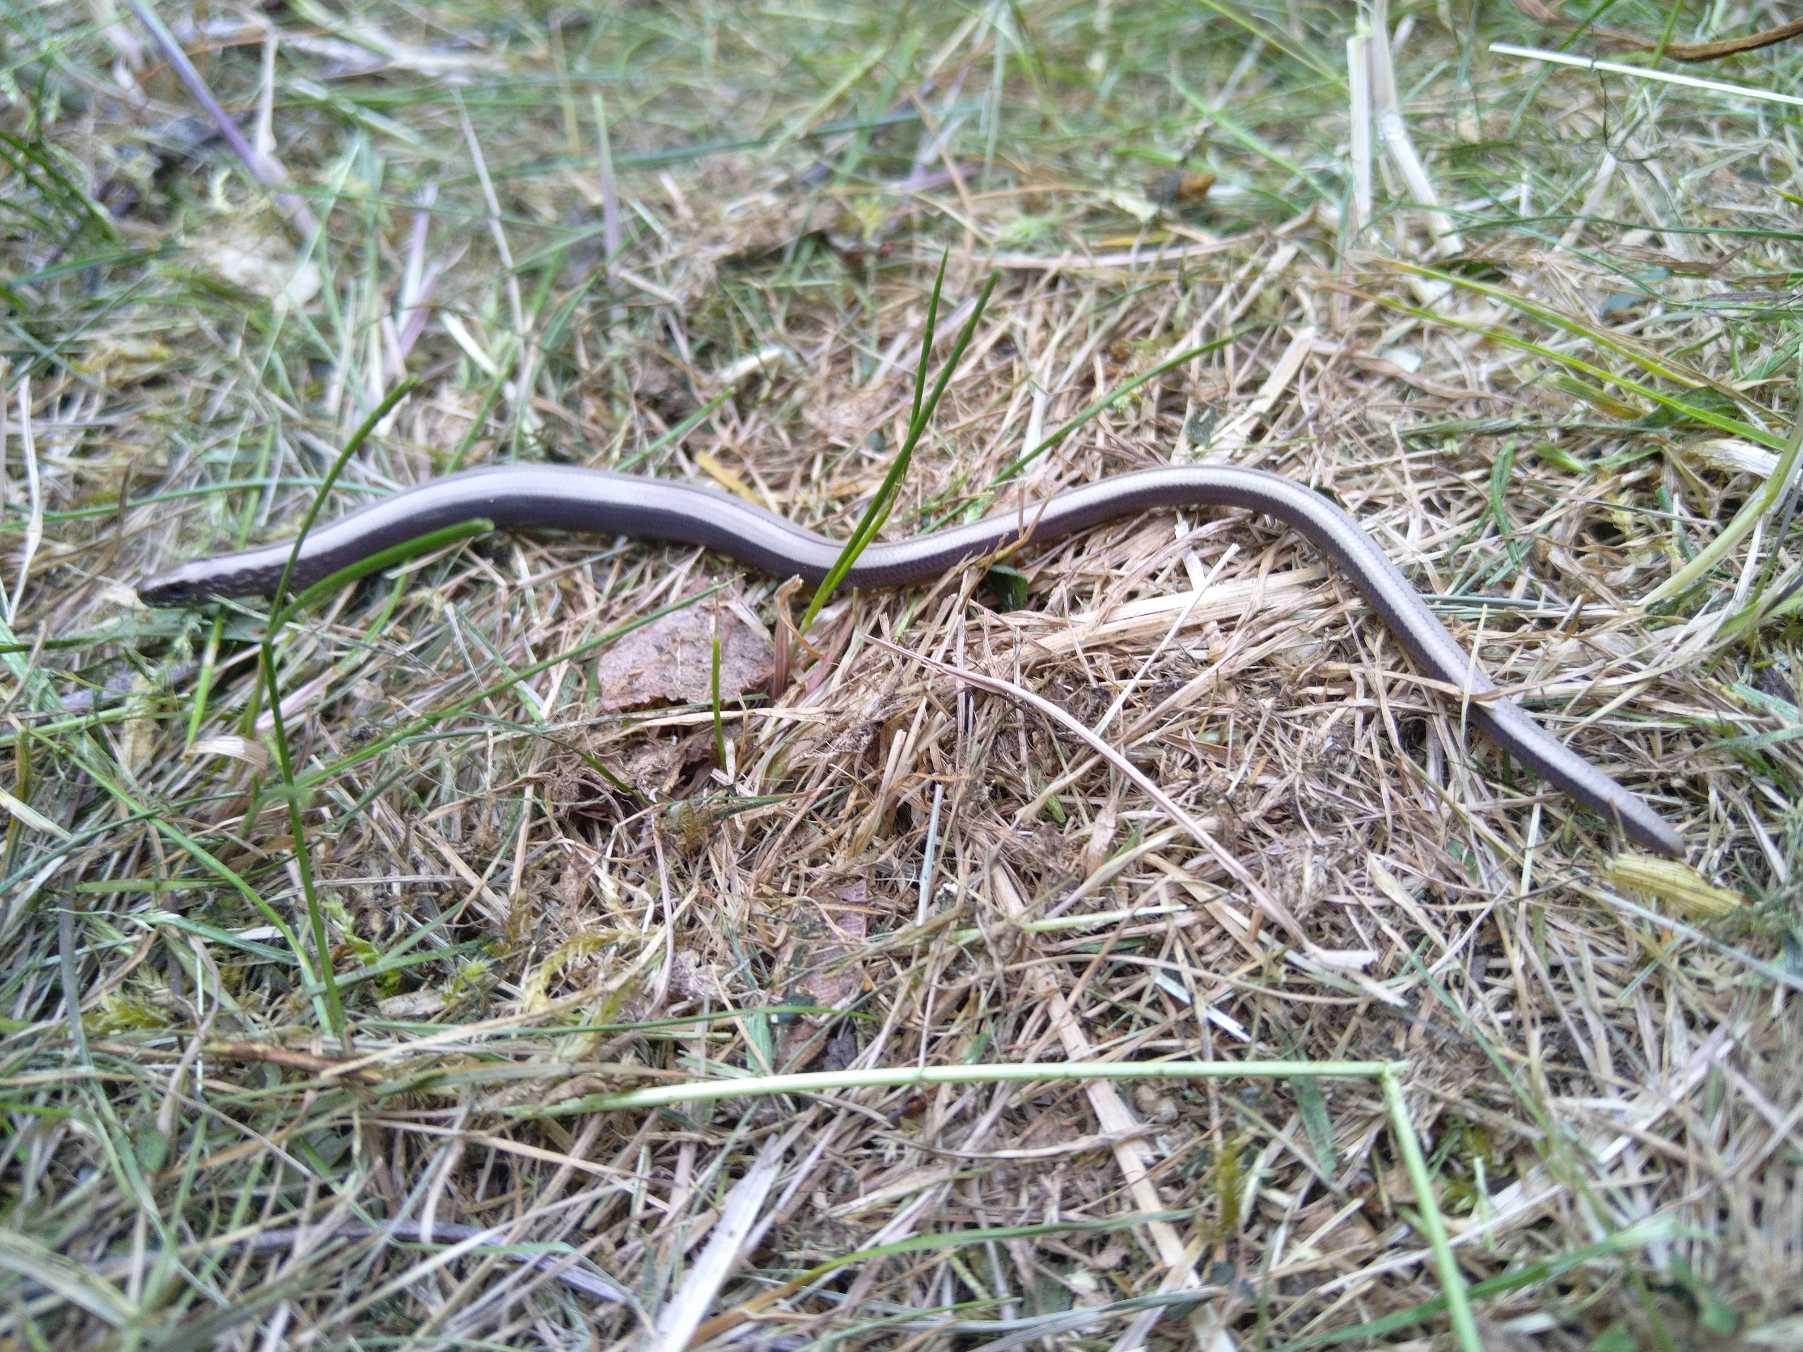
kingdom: Animalia
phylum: Chordata
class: Squamata
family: Anguidae
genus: Anguis
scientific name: Anguis fragilis
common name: Stålorm
